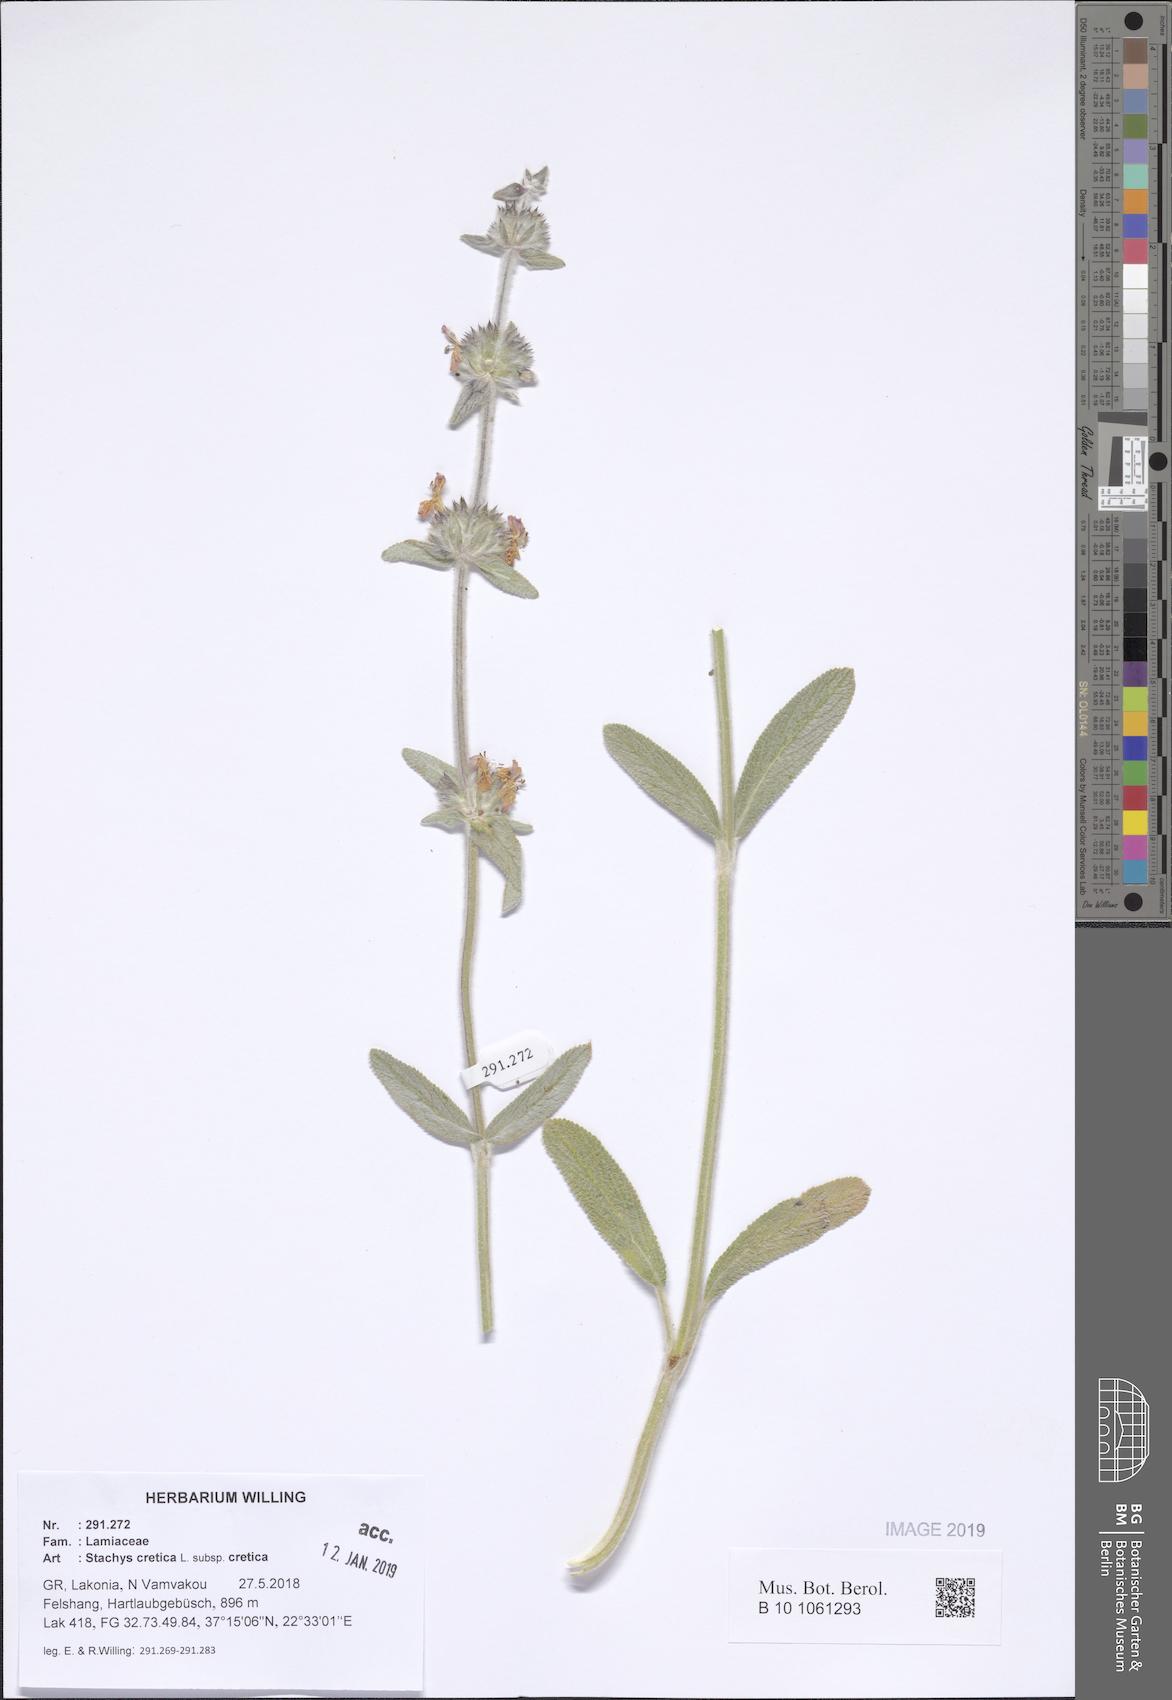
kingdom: Plantae
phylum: Tracheophyta
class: Magnoliopsida
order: Lamiales
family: Lamiaceae
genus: Stachys
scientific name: Stachys cretica
